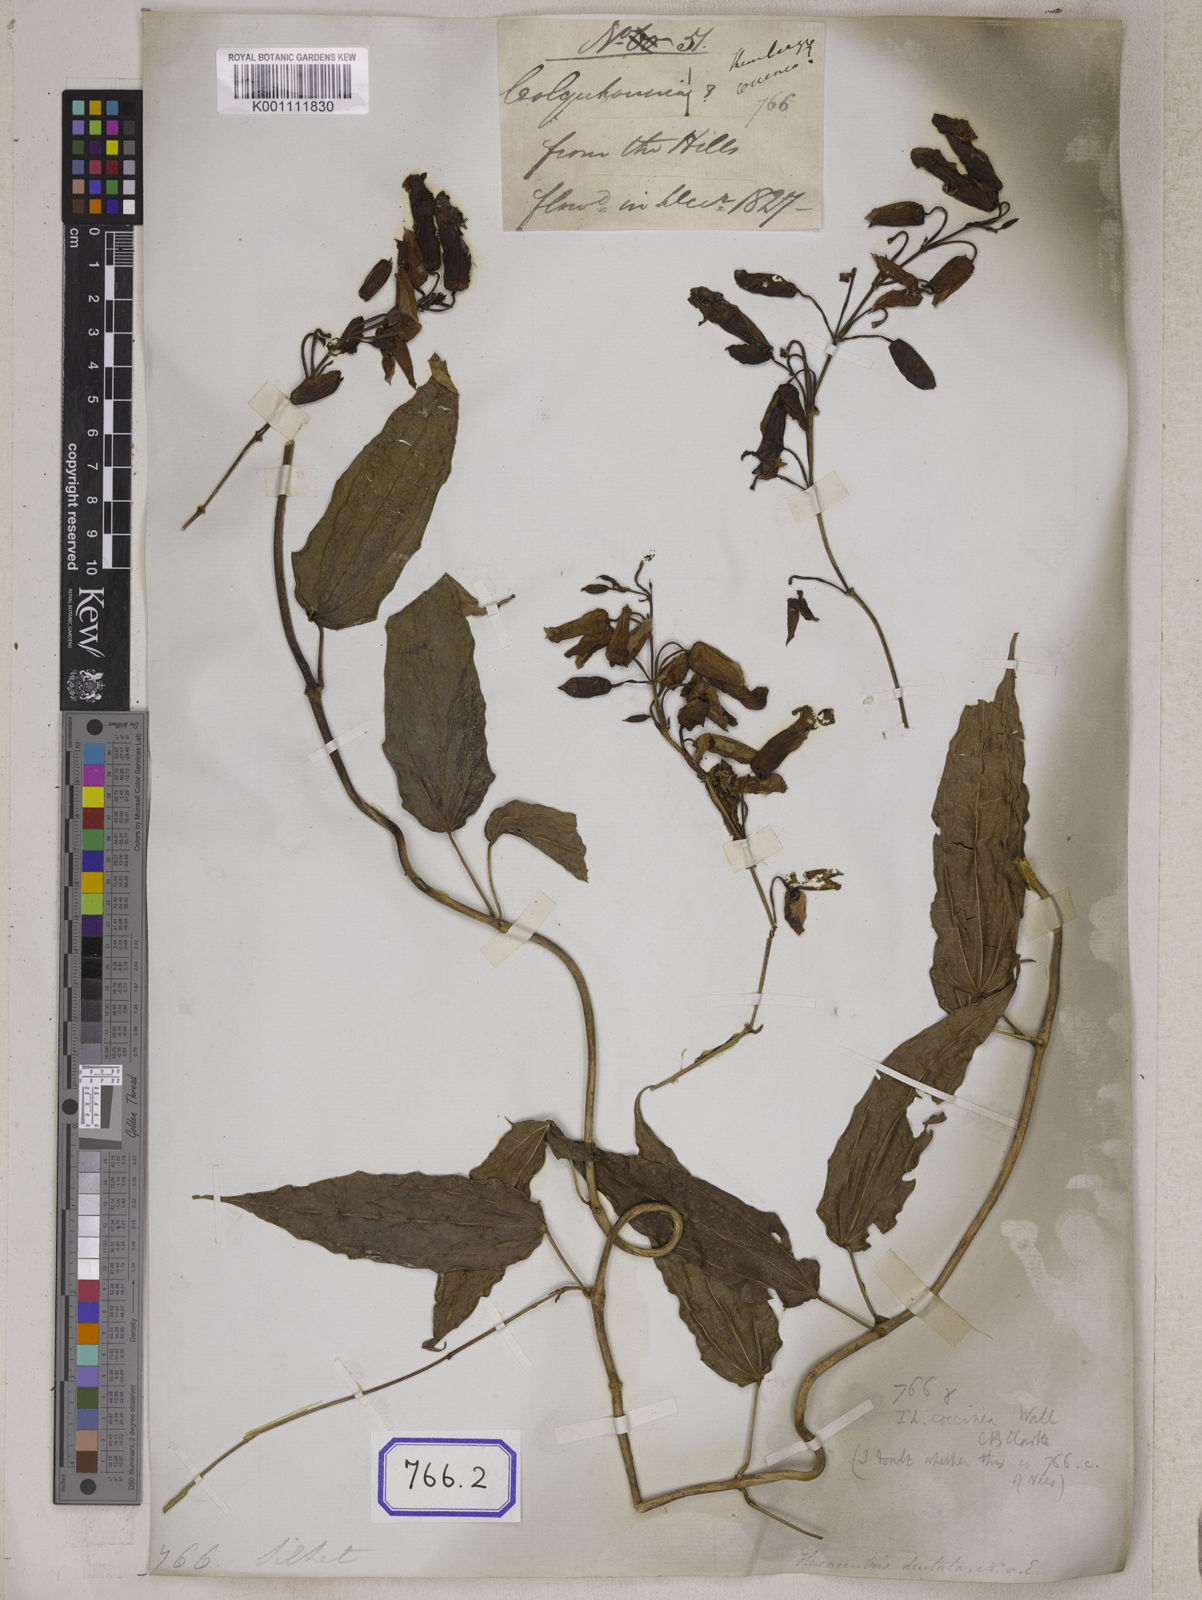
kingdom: Plantae
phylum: Tracheophyta
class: Magnoliopsida
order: Lamiales
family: Acanthaceae
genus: Thunbergia
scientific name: Thunbergia
